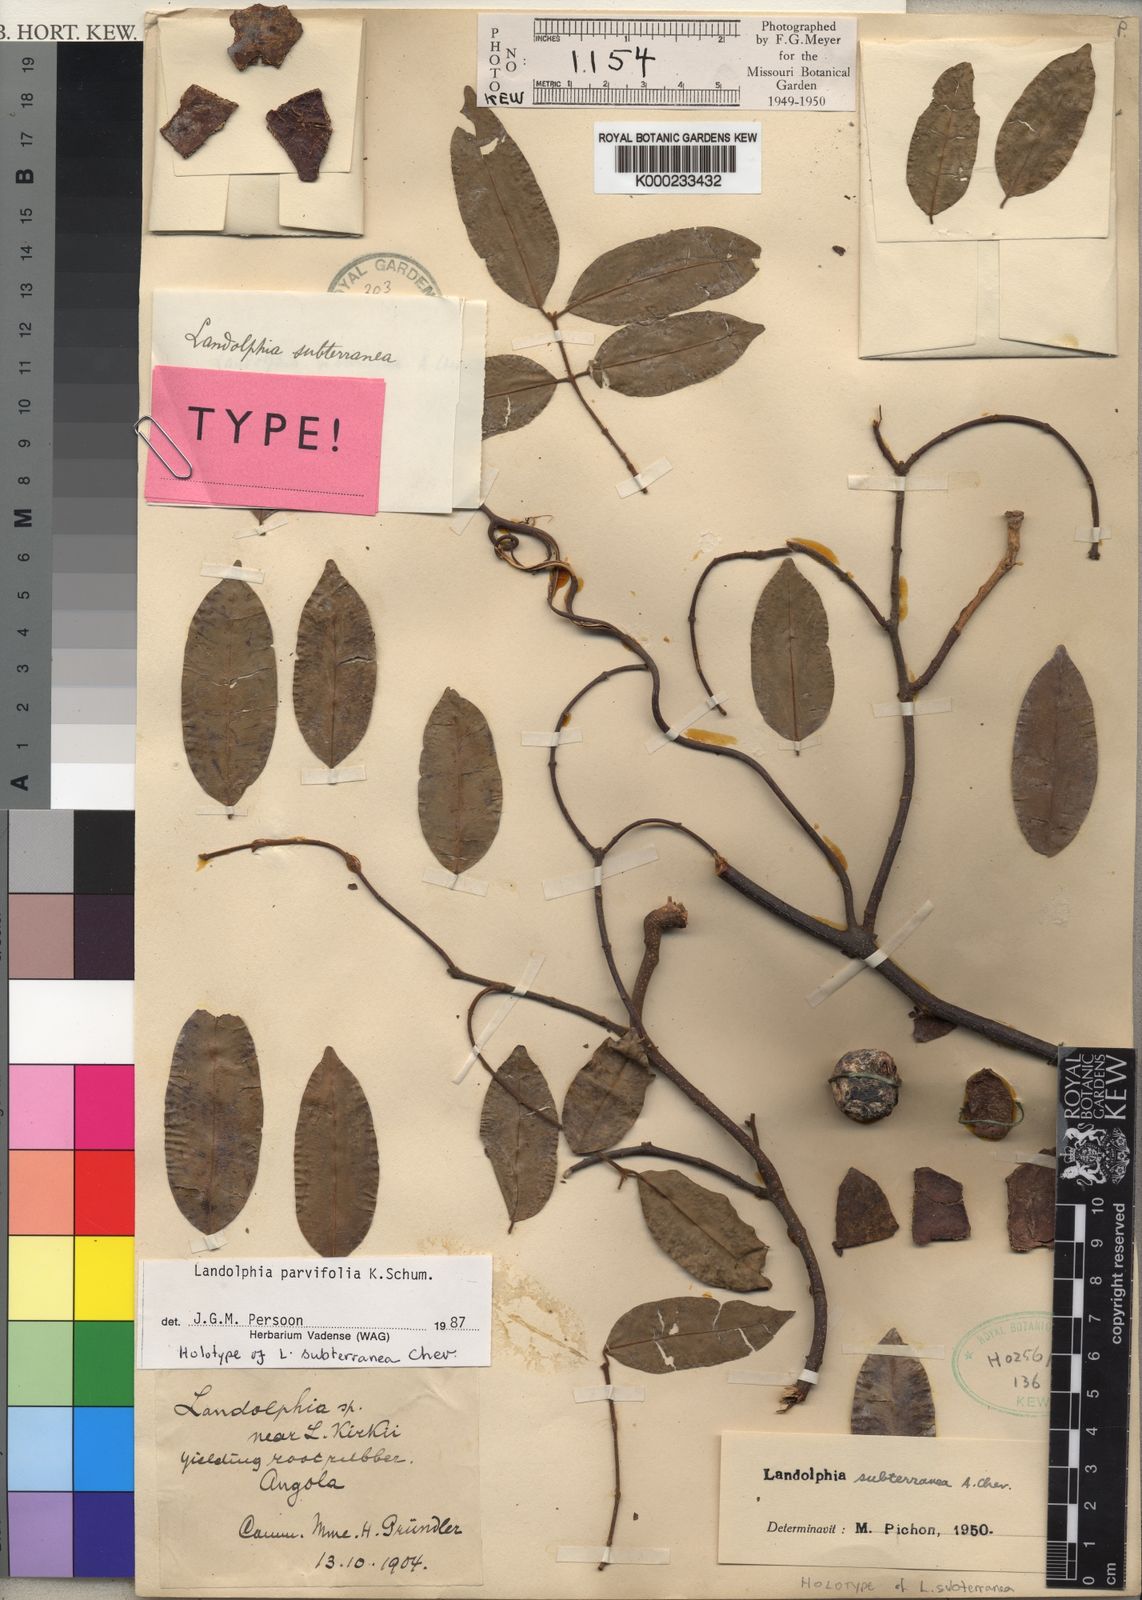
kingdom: Plantae
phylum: Tracheophyta
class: Magnoliopsida
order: Gentianales
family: Apocynaceae
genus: Landolphia
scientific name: Landolphia
